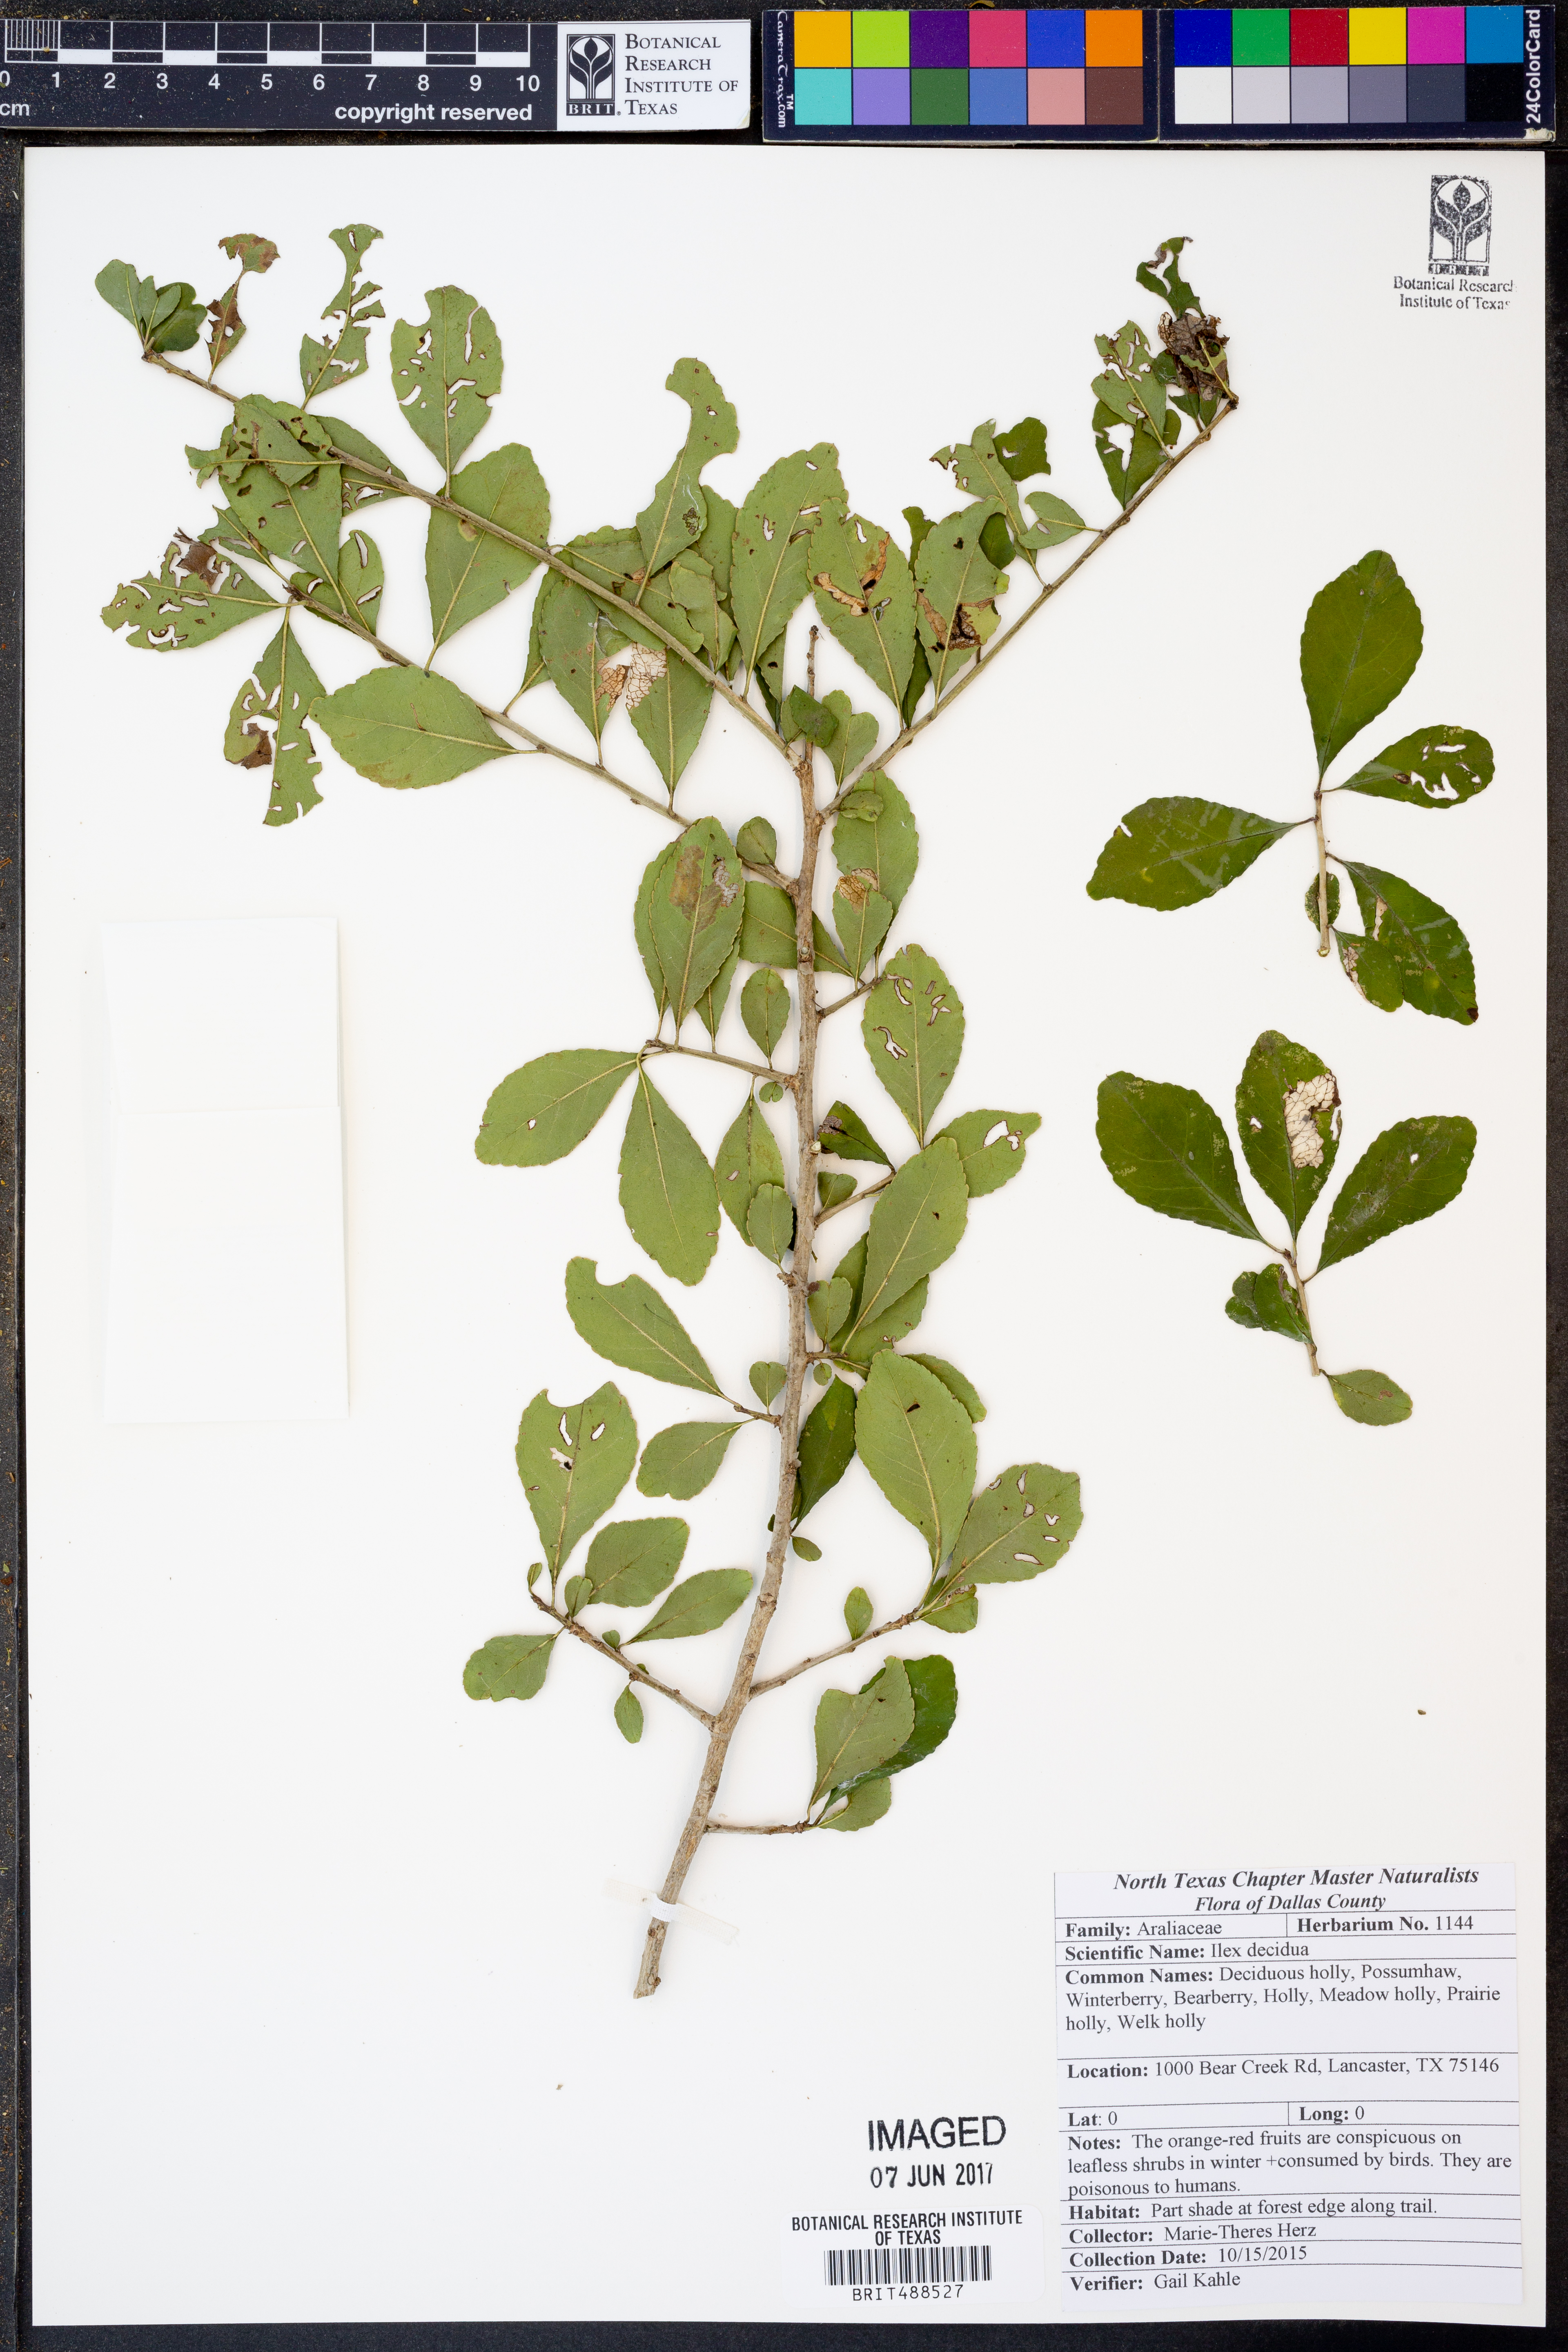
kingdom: Plantae
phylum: Tracheophyta
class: Magnoliopsida
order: Aquifoliales
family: Aquifoliaceae
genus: Ilex
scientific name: Ilex decidua
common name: Possum-haw
